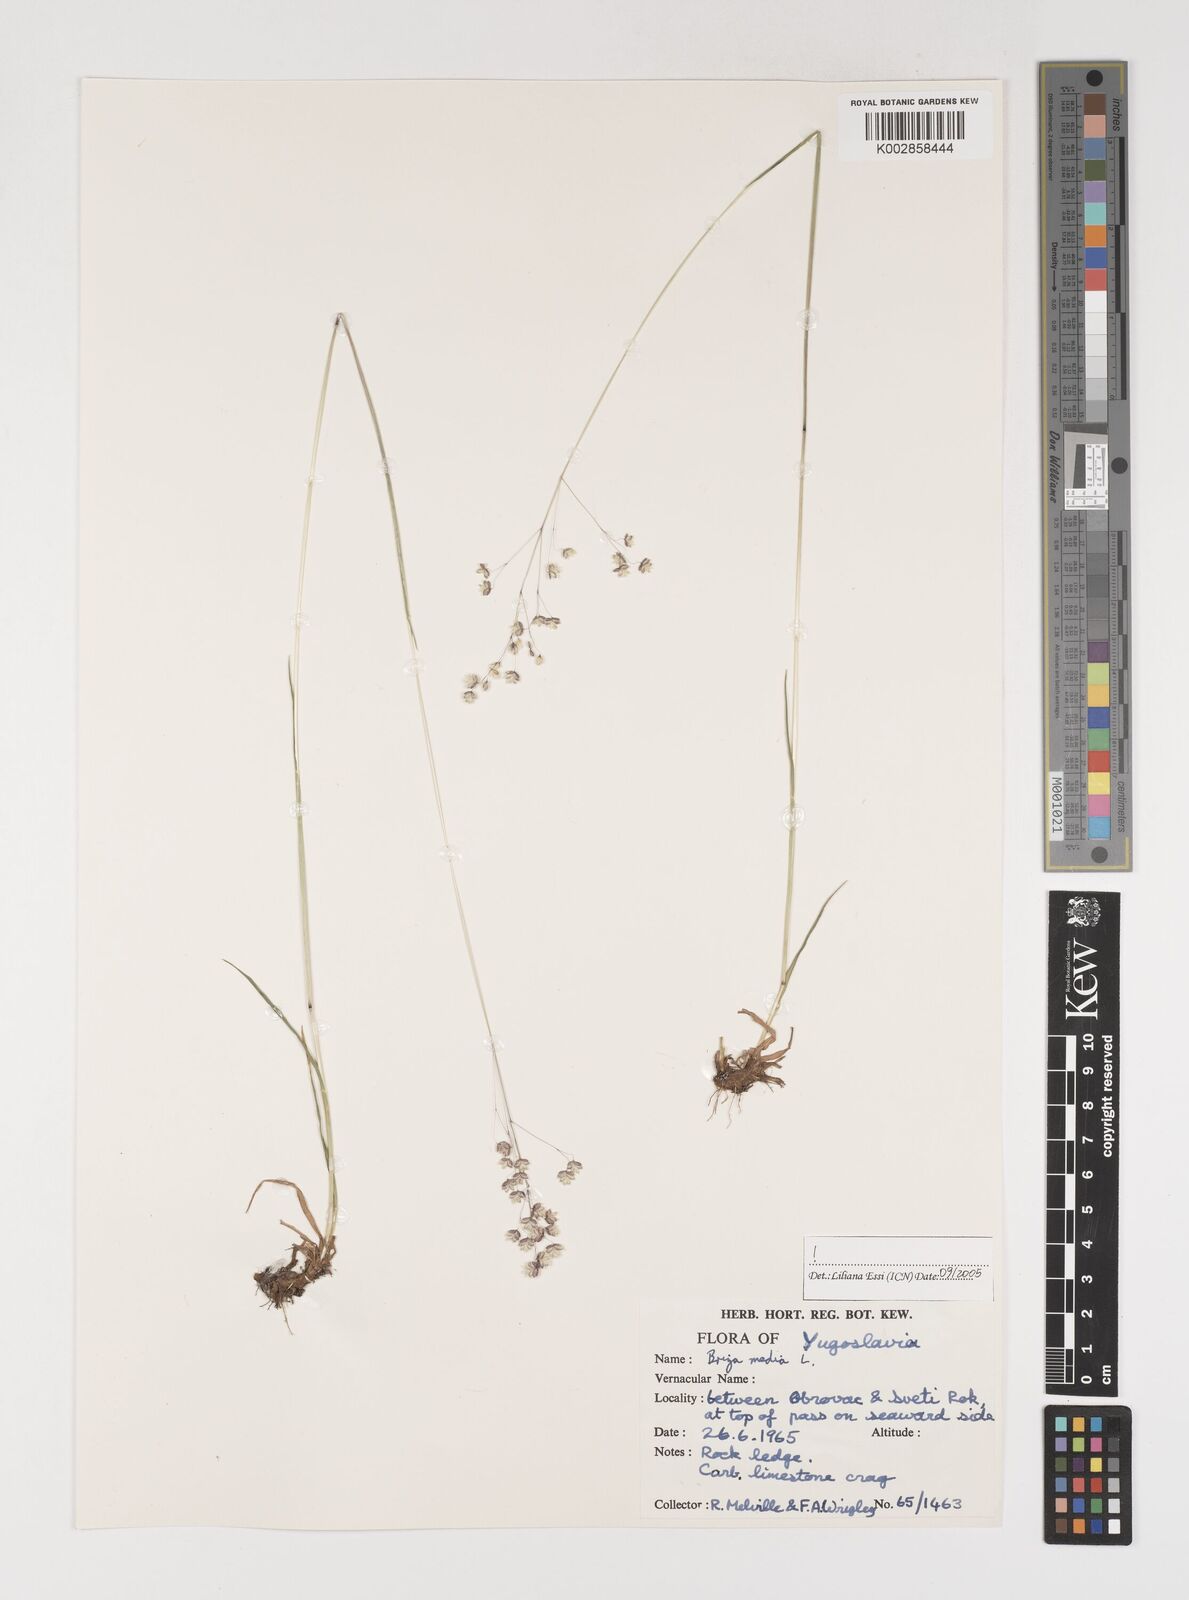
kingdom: Plantae
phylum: Tracheophyta
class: Liliopsida
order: Poales
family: Poaceae
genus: Briza
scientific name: Briza media
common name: Quaking grass
